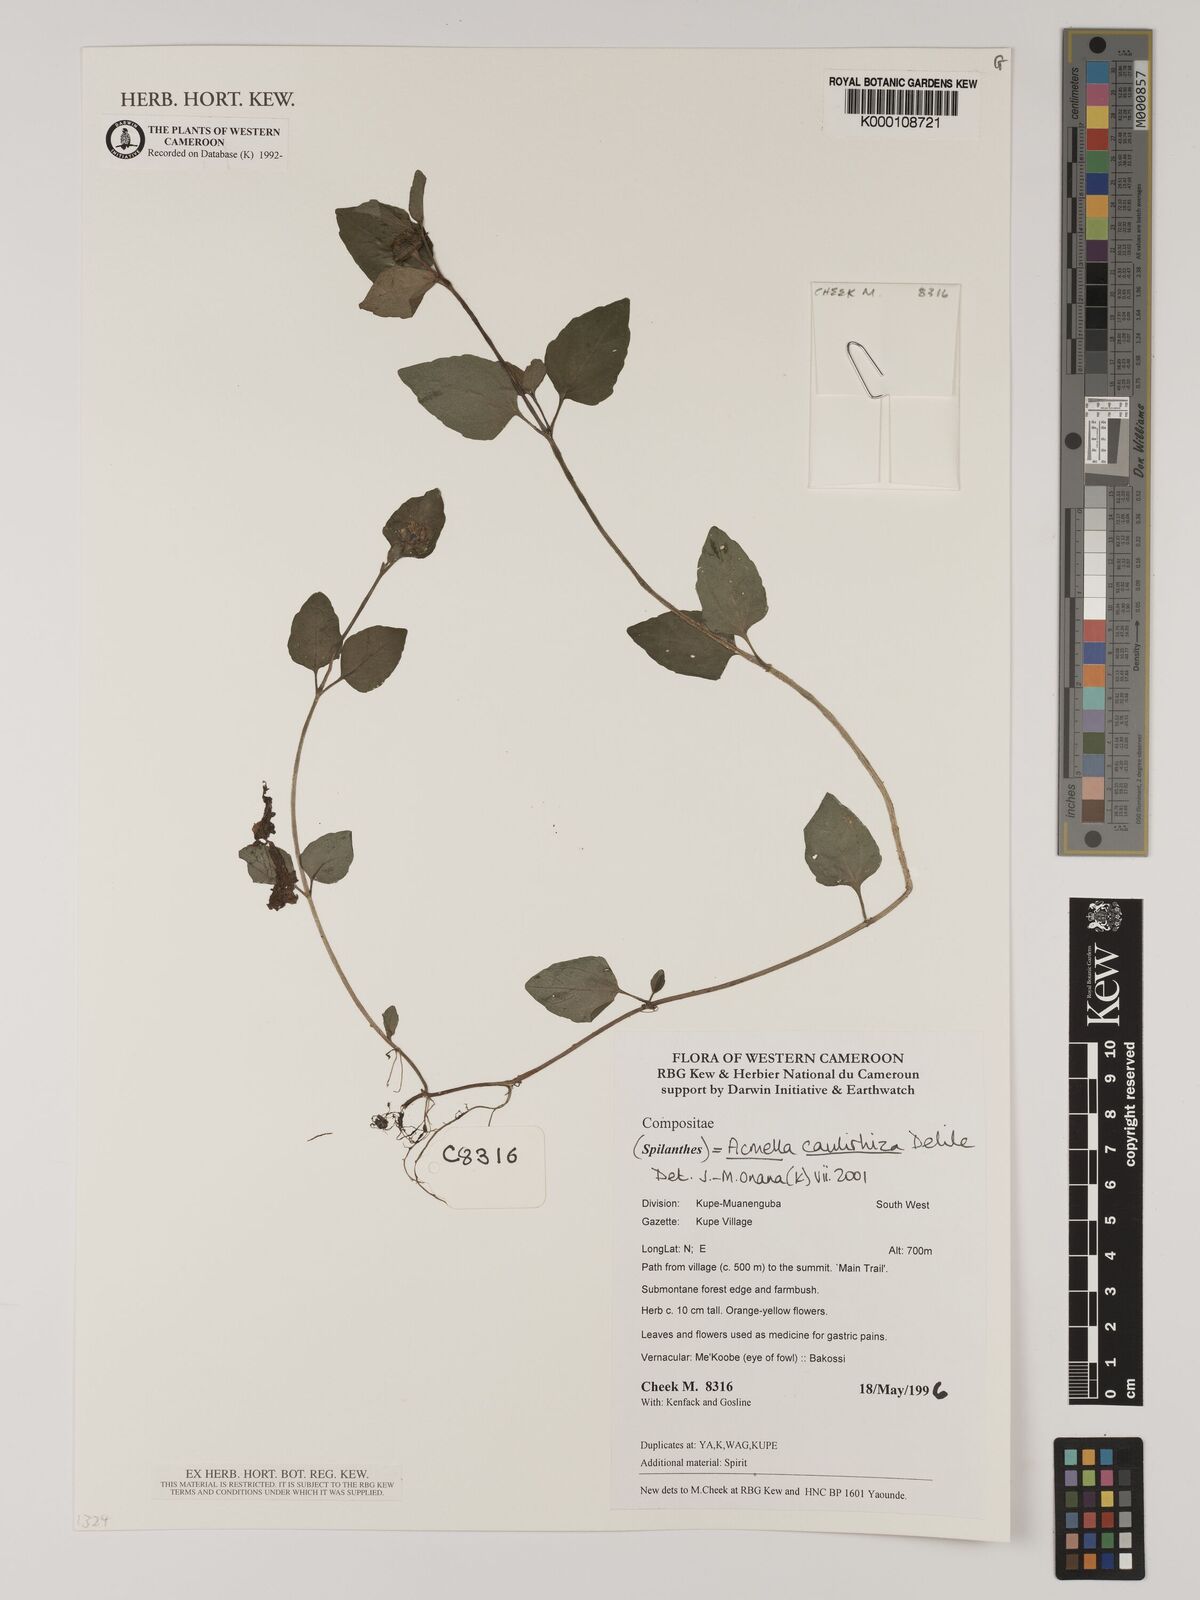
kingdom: Plantae
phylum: Tracheophyta
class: Magnoliopsida
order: Asterales
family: Asteraceae
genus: Acmella
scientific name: Acmella caulirhiza
